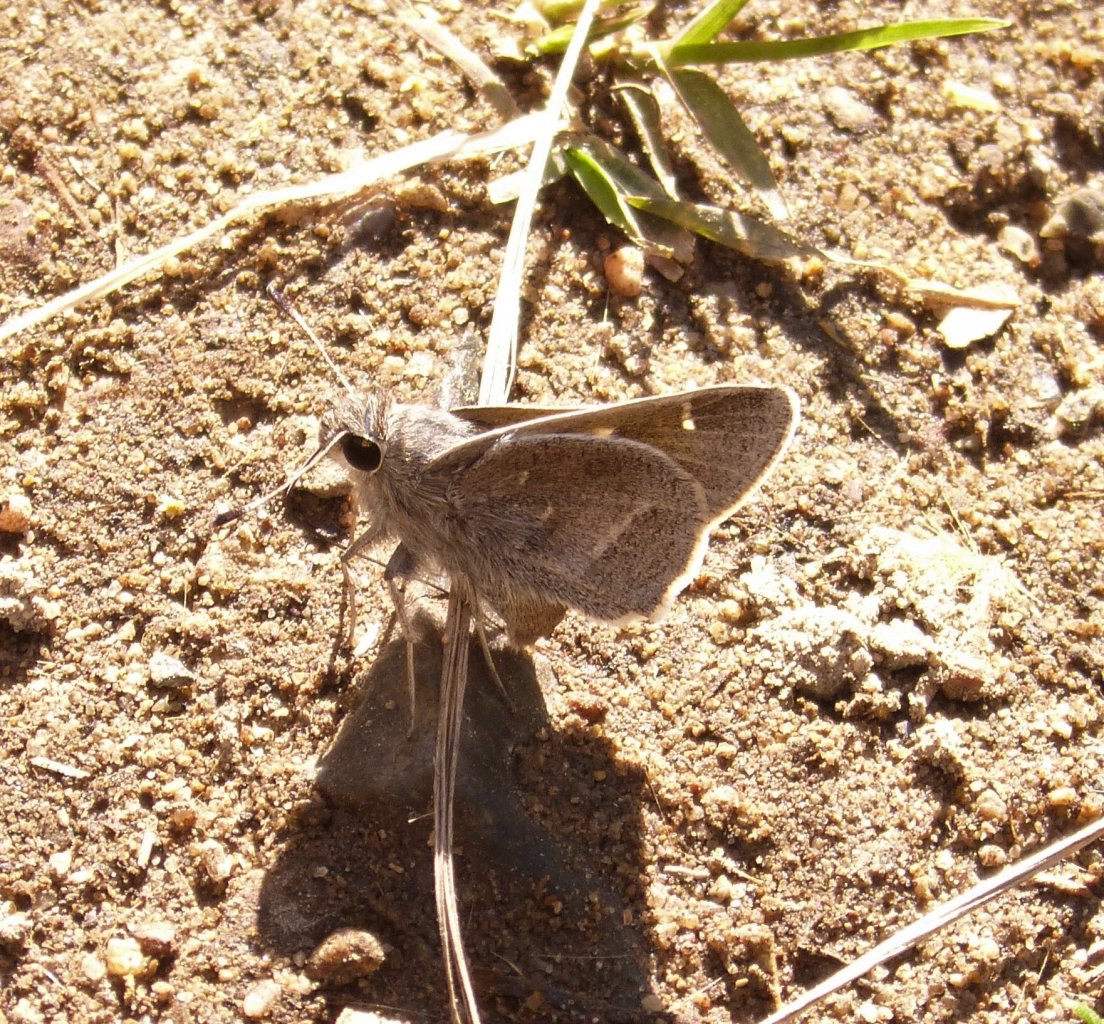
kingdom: Animalia
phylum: Arthropoda
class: Insecta
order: Lepidoptera
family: Hesperiidae
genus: Atrytonopsis
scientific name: Atrytonopsis pittacus
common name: White-barred Skipper
